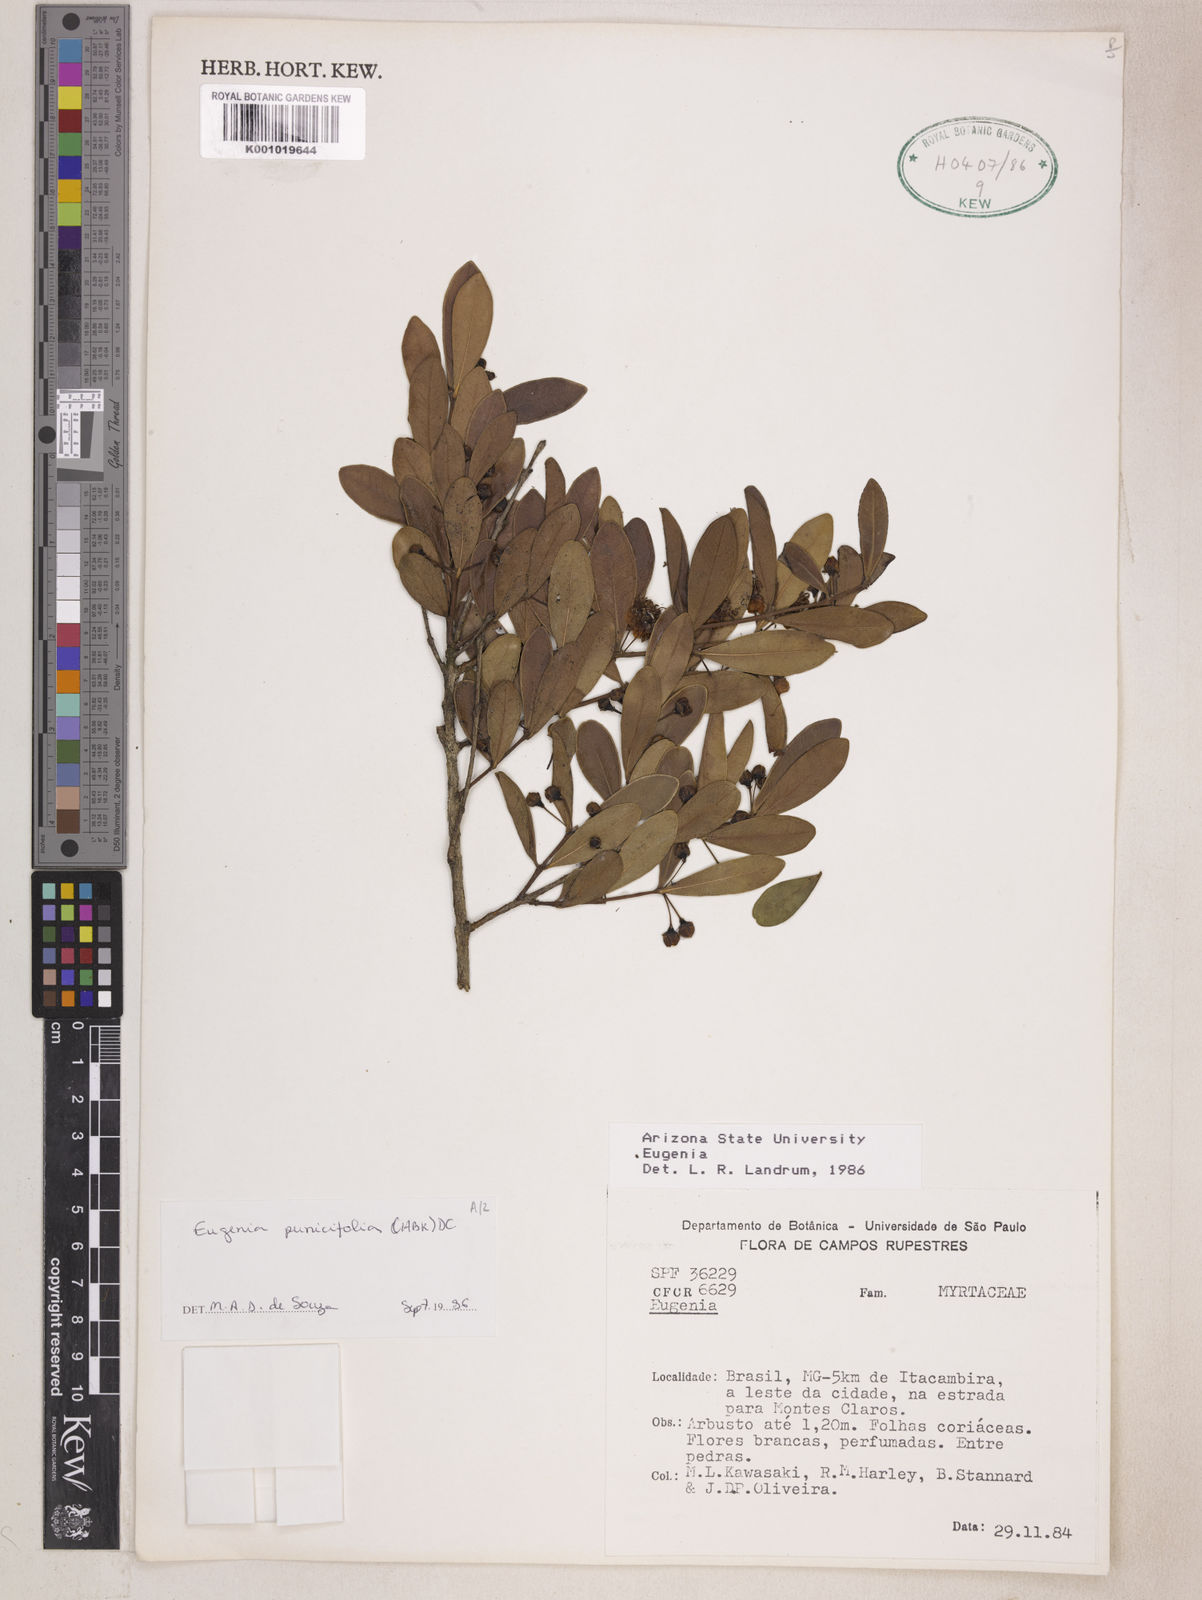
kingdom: Plantae
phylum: Tracheophyta
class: Magnoliopsida
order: Myrtales
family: Myrtaceae
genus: Eugenia
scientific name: Eugenia punicifolia
